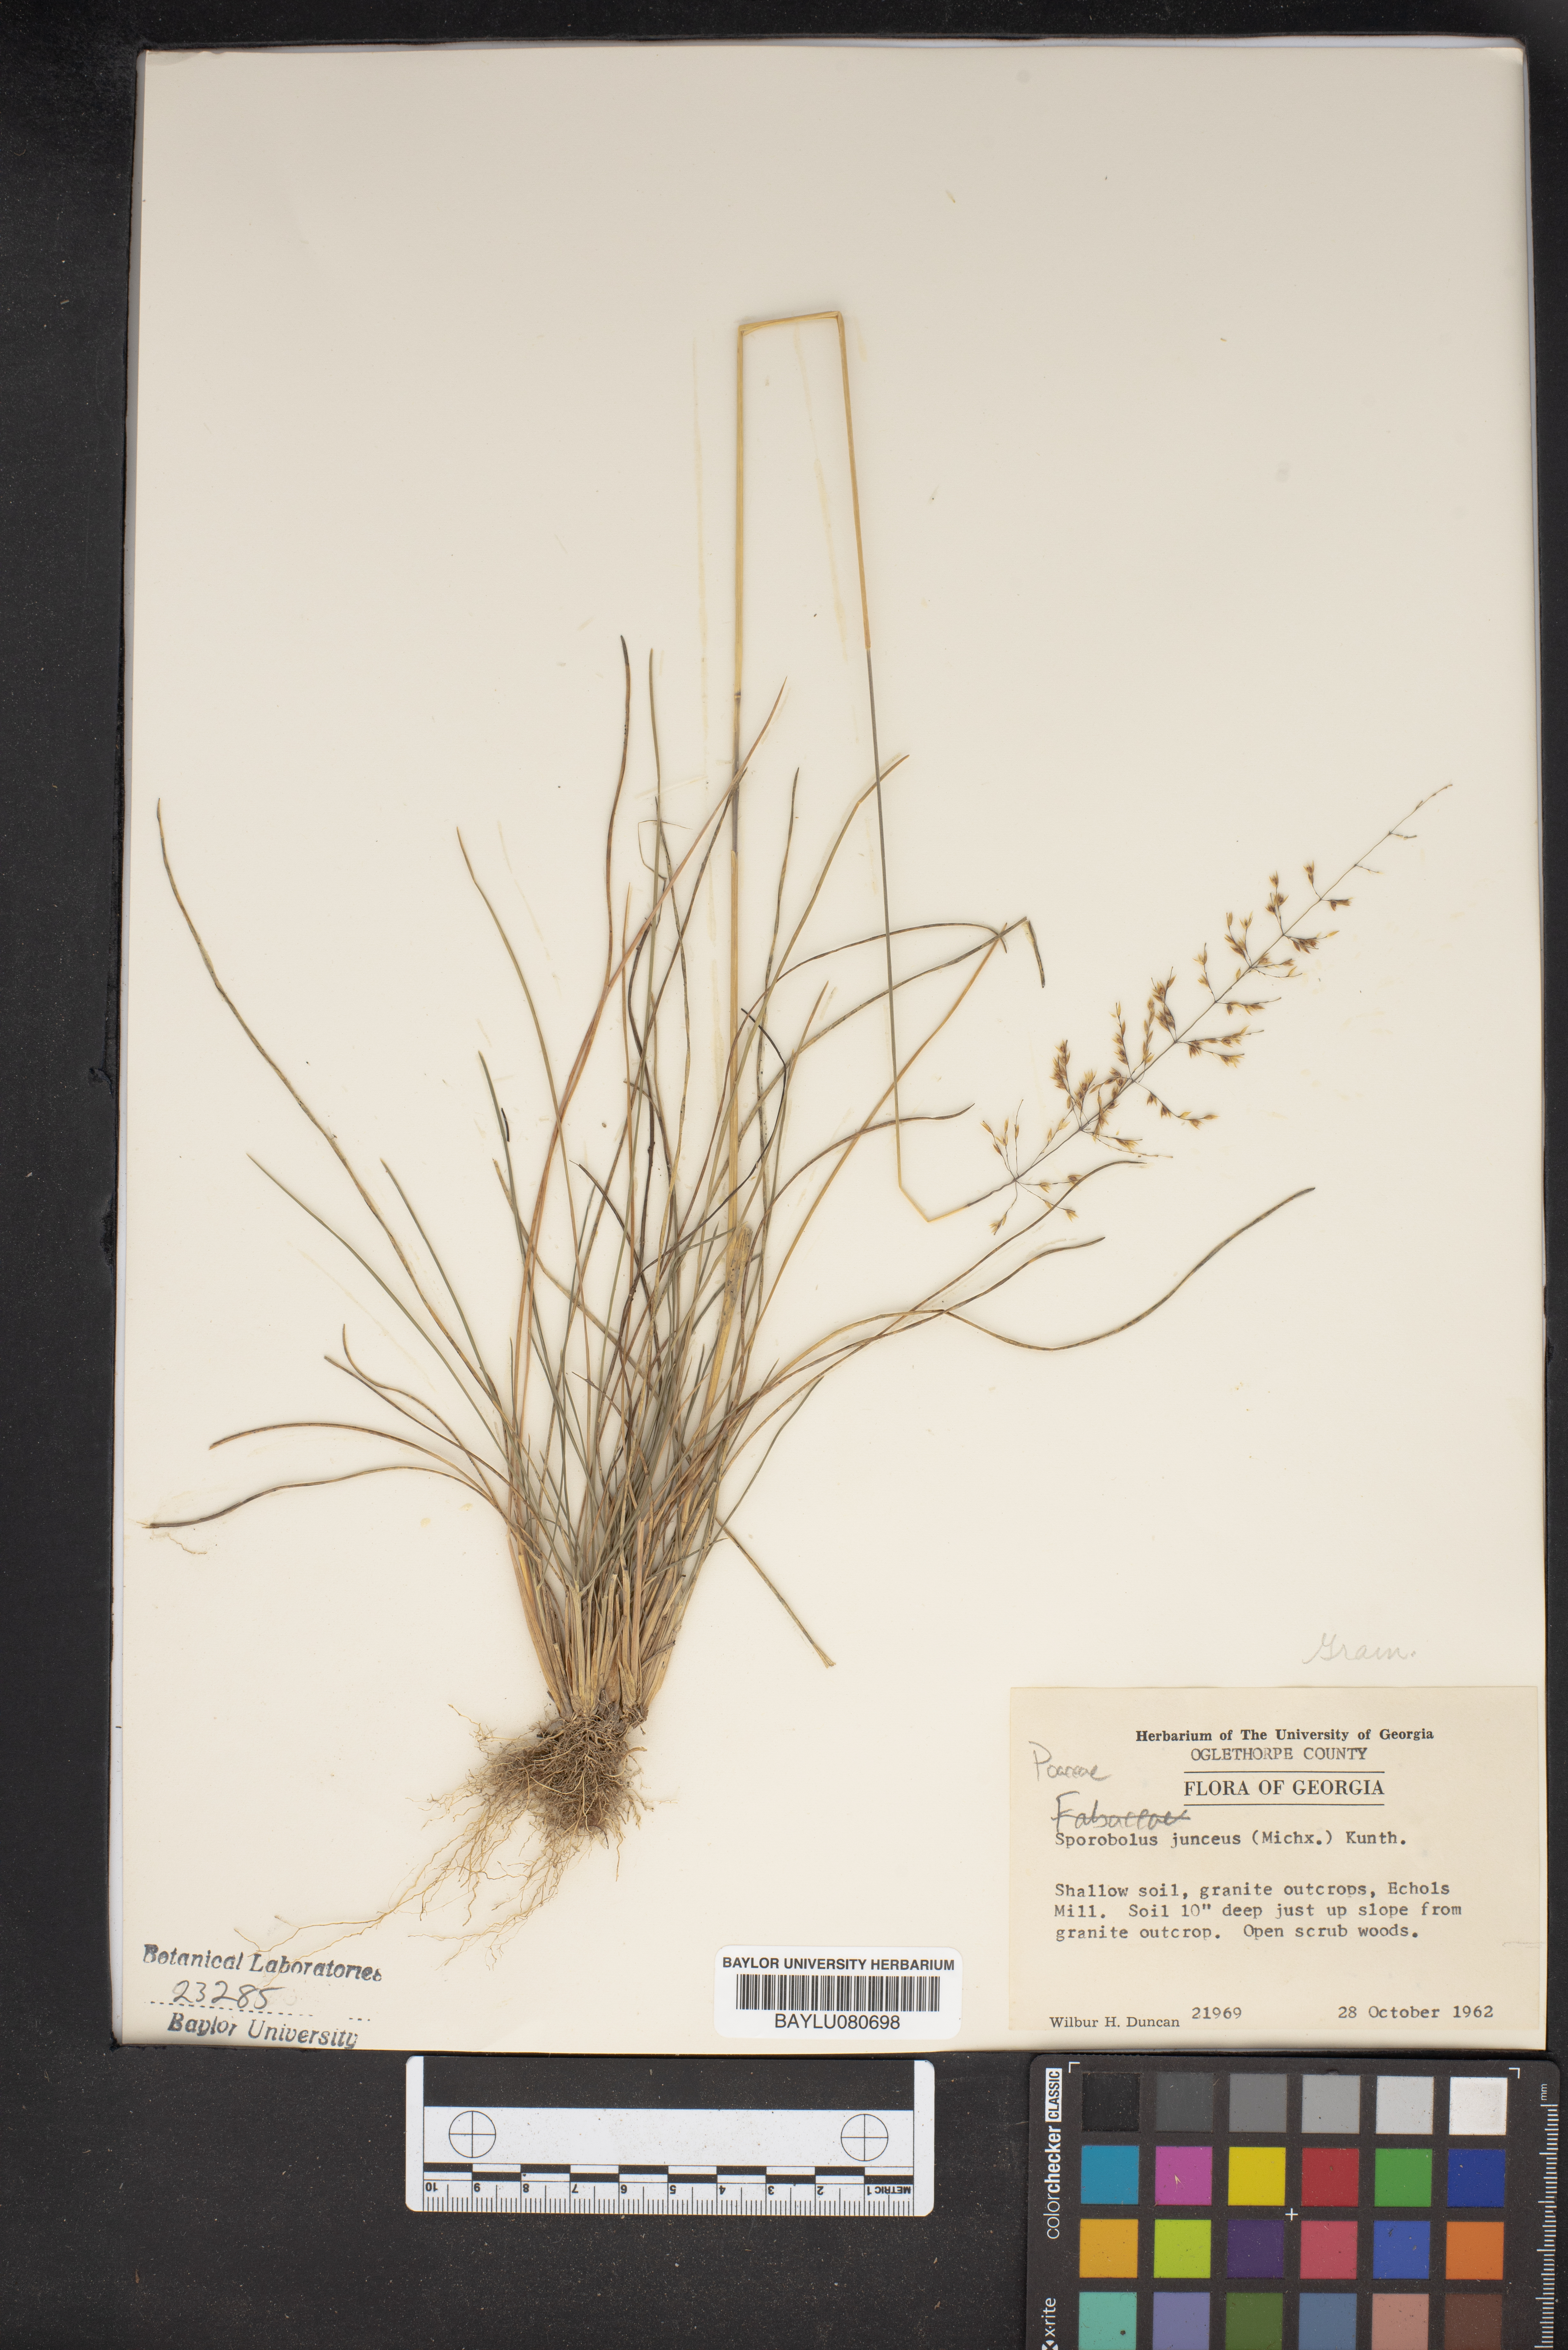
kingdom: Plantae
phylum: Tracheophyta
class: Liliopsida
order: Poales
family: Poaceae
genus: Sporobolus
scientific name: Sporobolus junceus
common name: Lizard grass
